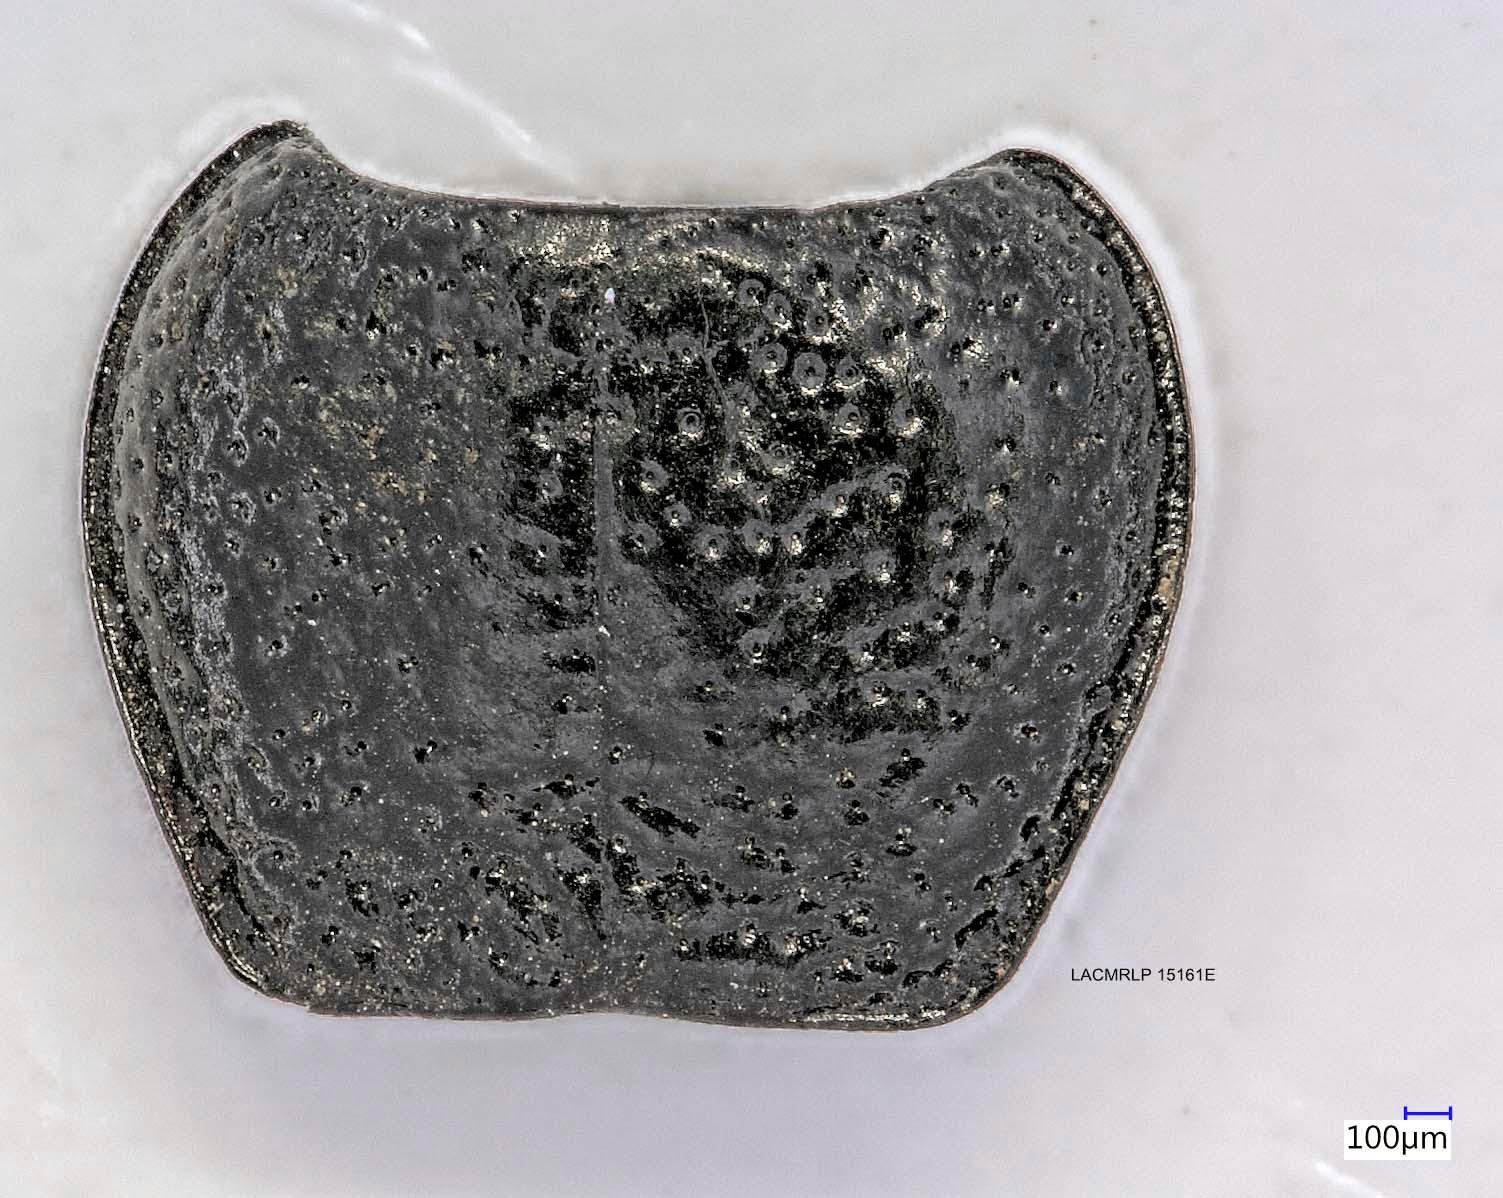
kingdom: Animalia
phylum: Arthropoda
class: Insecta
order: Coleoptera
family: Carabidae
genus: Dicheirus
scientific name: Dicheirus dilatatus
